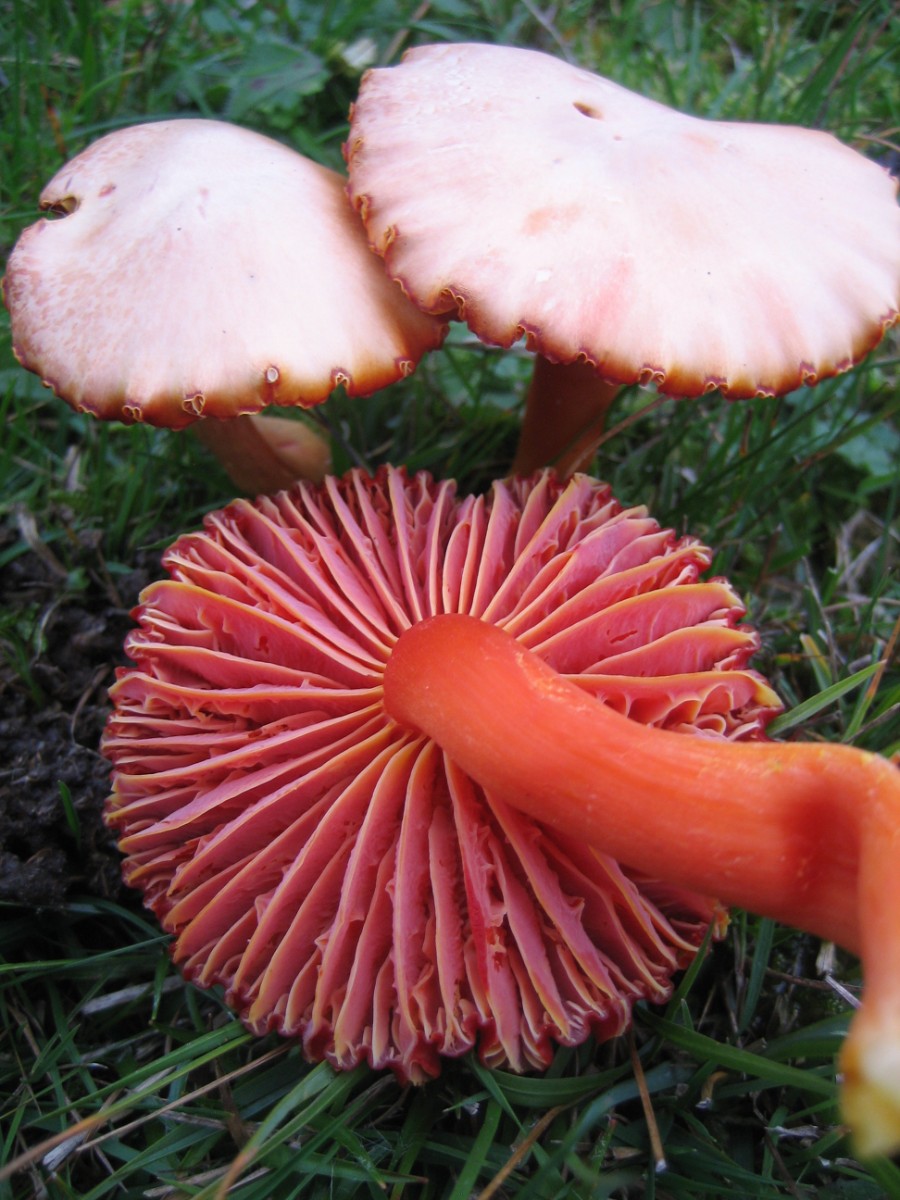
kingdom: Fungi
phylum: Basidiomycota
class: Agaricomycetes
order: Agaricales
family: Hygrophoraceae
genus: Hygrocybe
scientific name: Hygrocybe coccinea
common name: cinnober-vokshat
